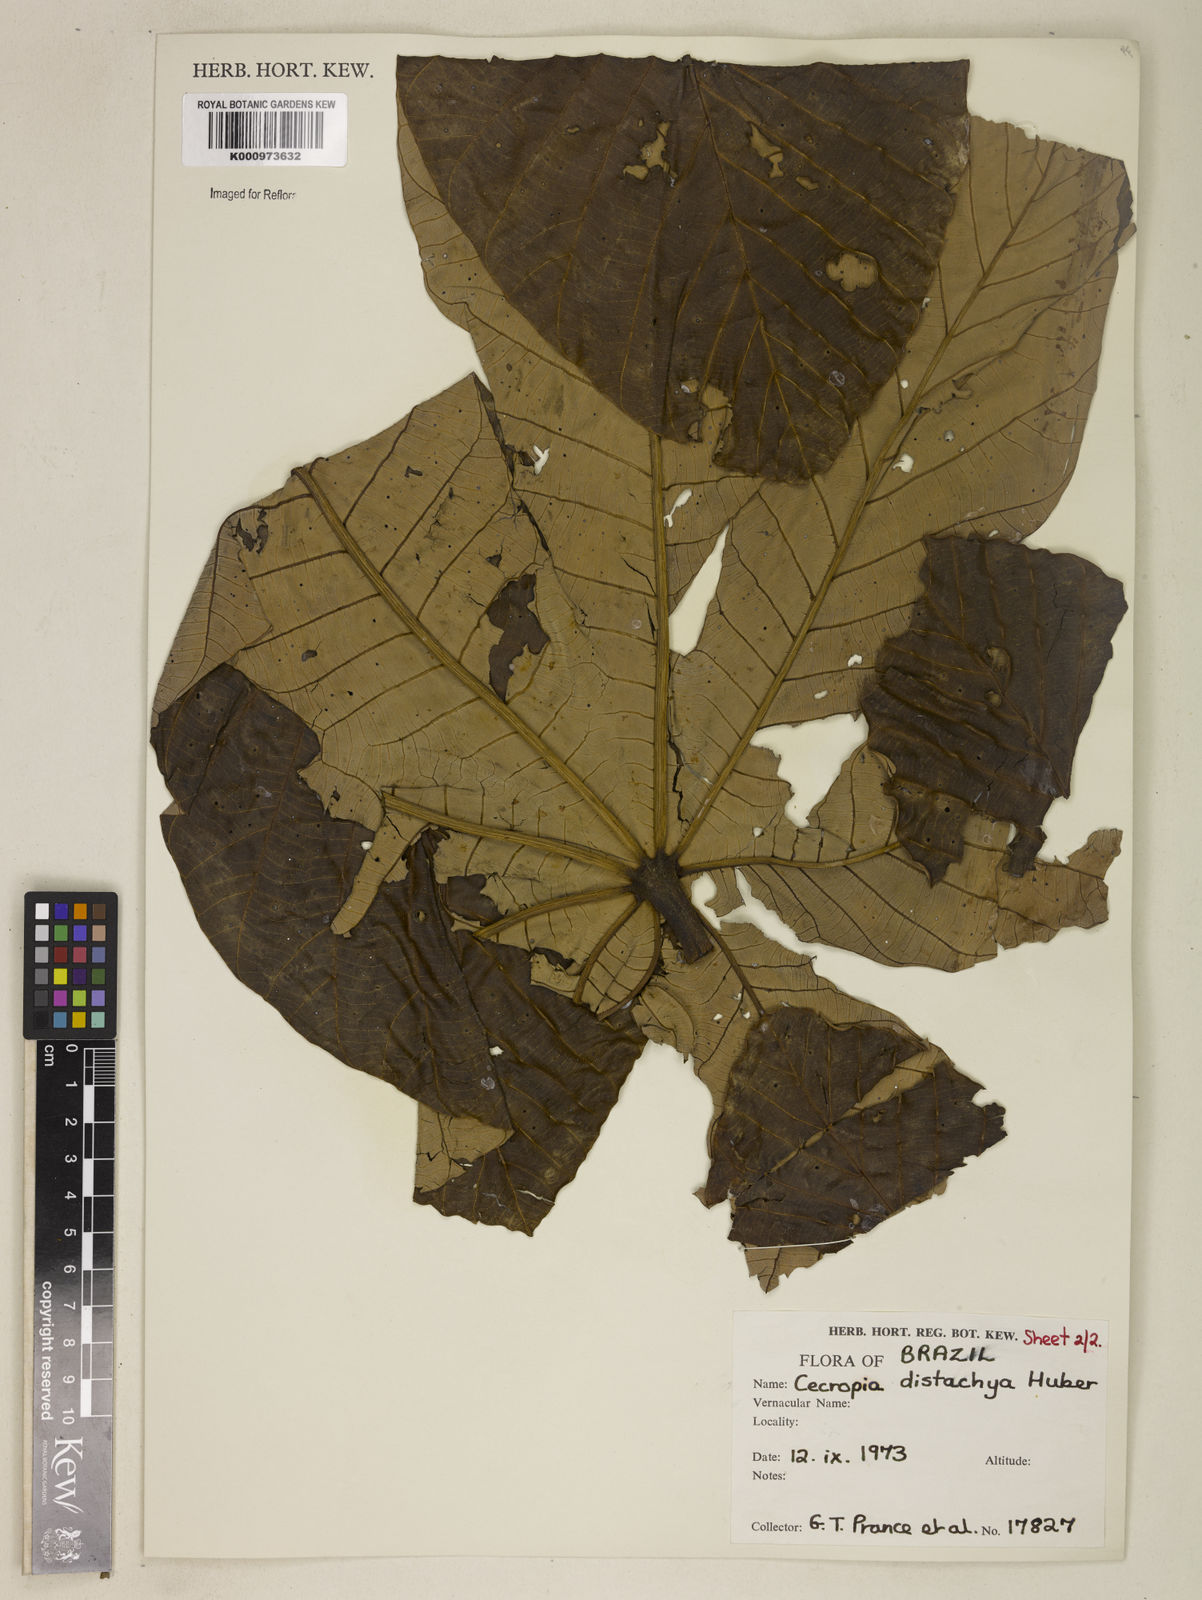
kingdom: Plantae
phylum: Tracheophyta
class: Magnoliopsida
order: Rosales
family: Urticaceae
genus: Cecropia
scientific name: Cecropia distachya
